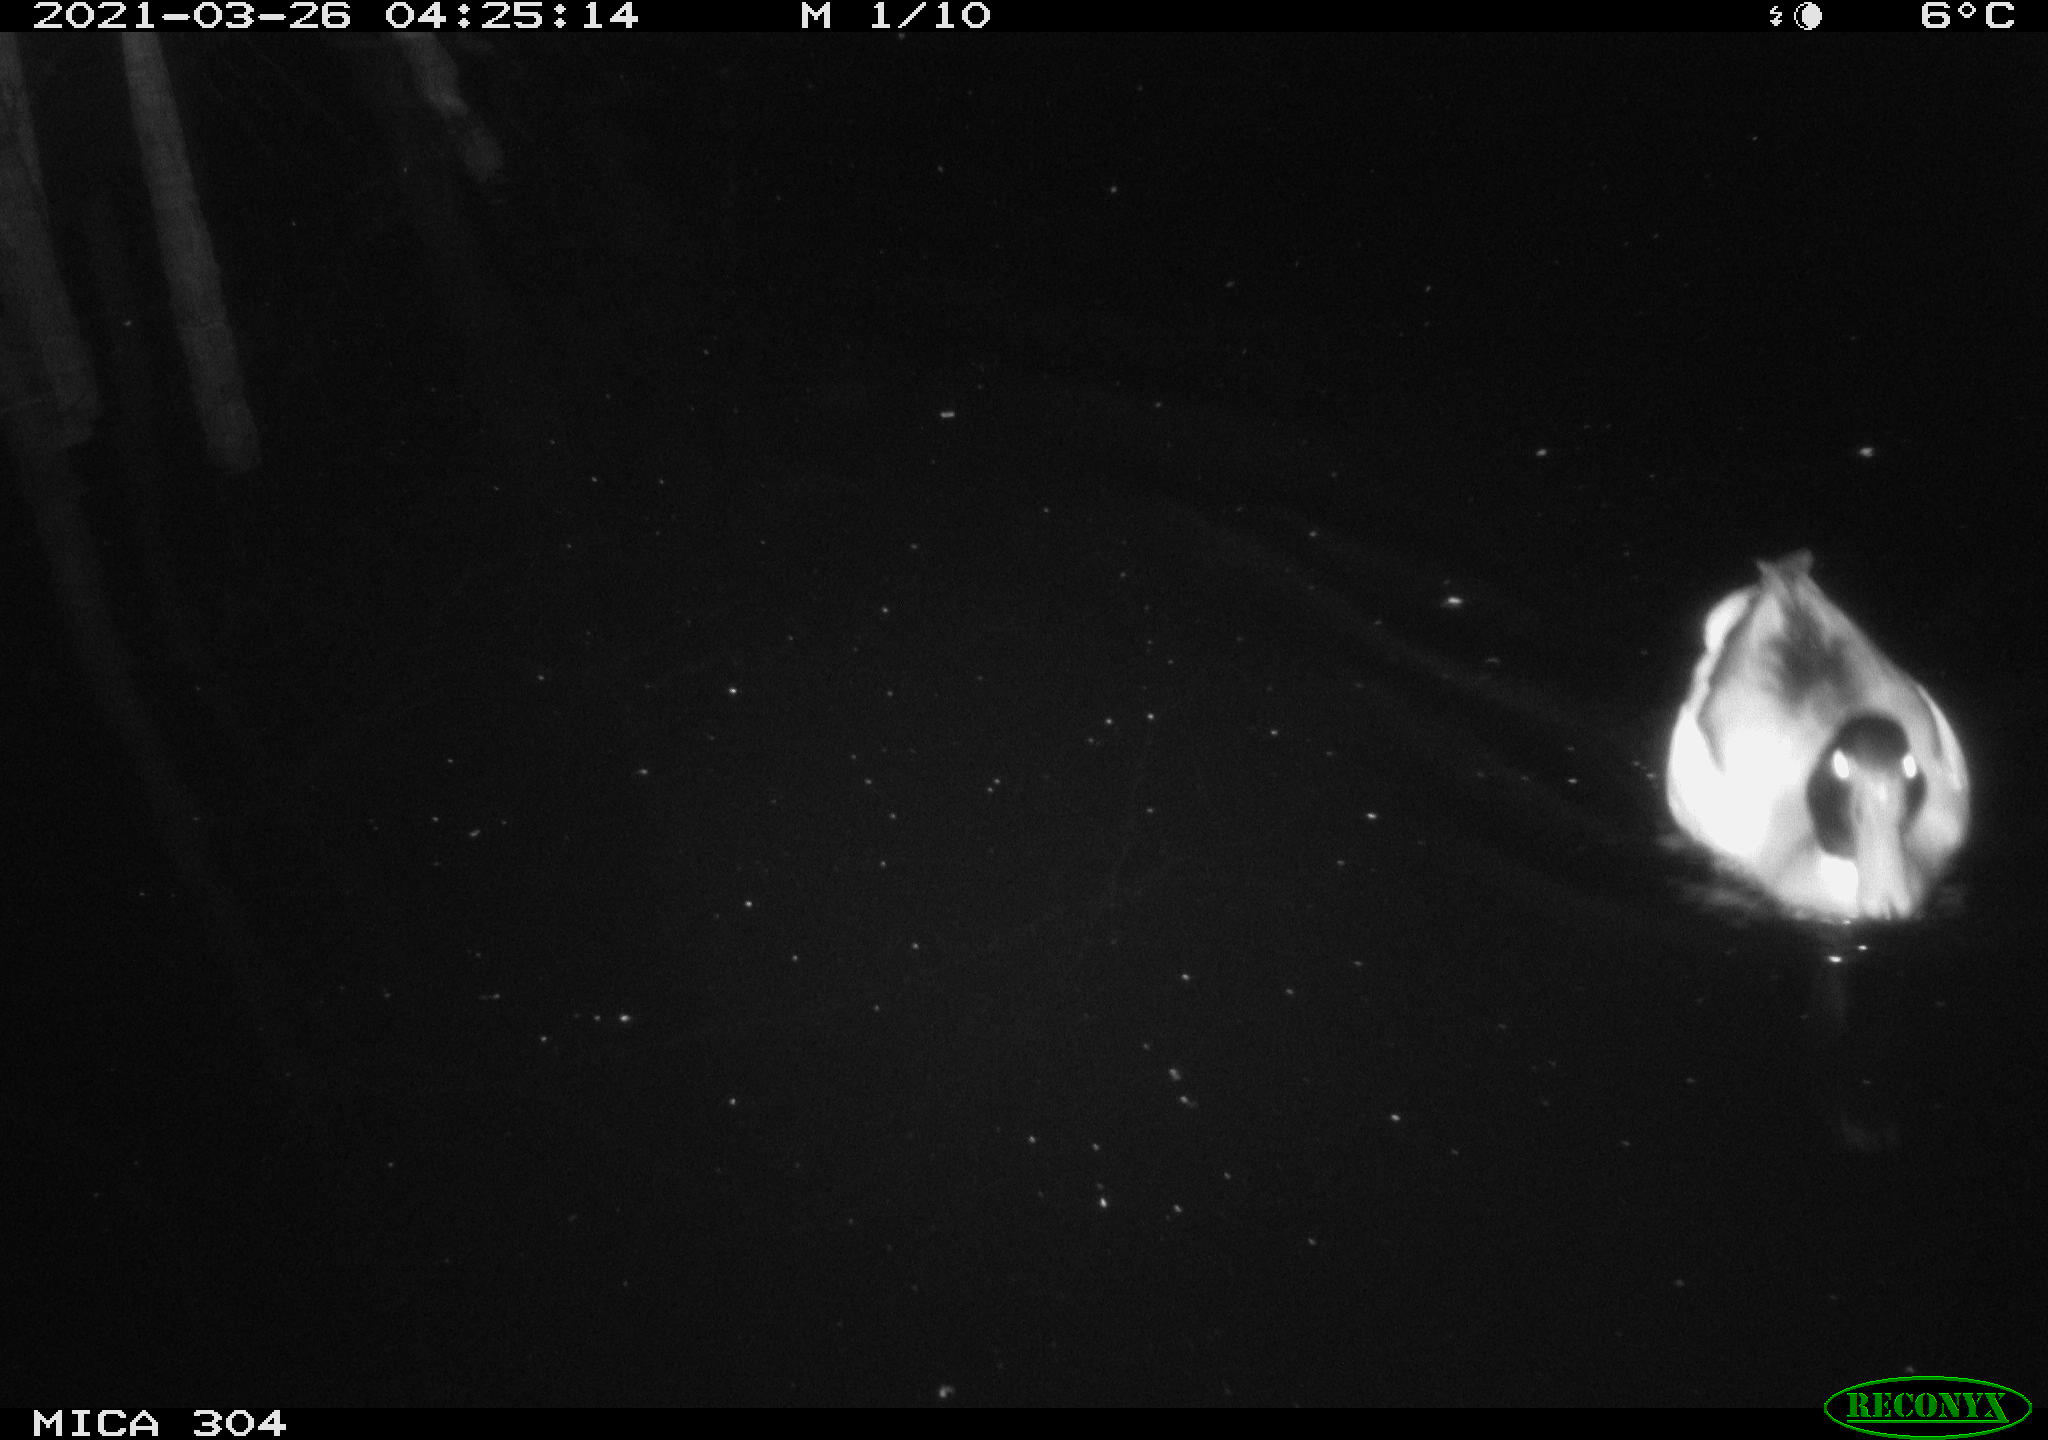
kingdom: Animalia
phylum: Chordata
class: Aves
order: Anseriformes
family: Anatidae
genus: Anas
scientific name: Anas platyrhynchos
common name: Mallard
